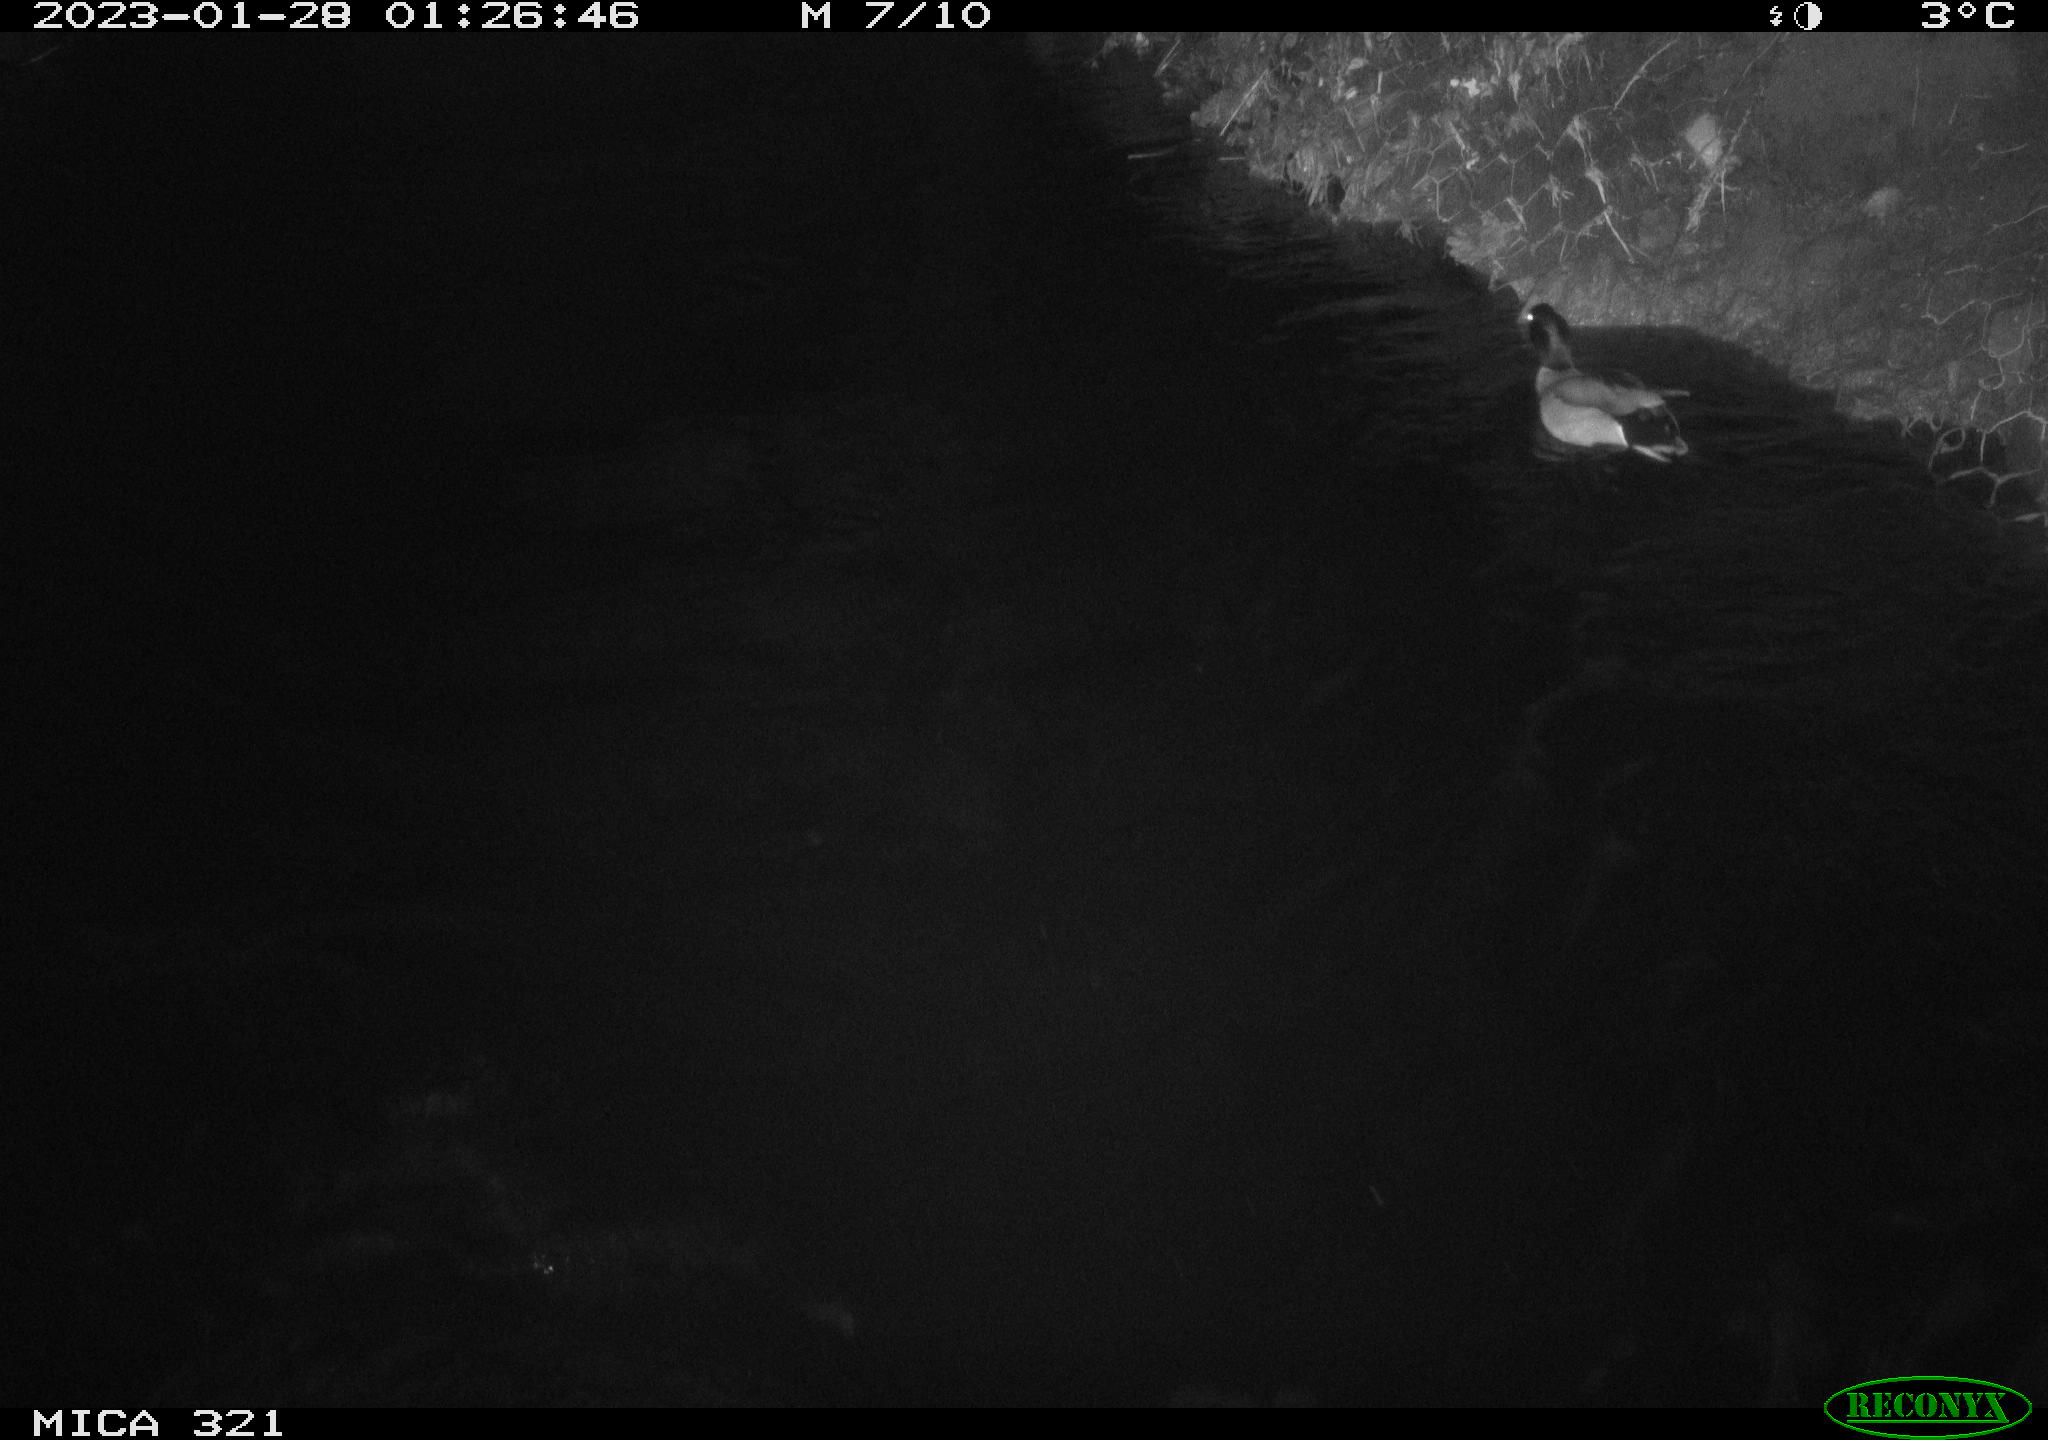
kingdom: Animalia
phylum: Chordata
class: Aves
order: Anseriformes
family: Anatidae
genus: Anas
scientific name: Anas
